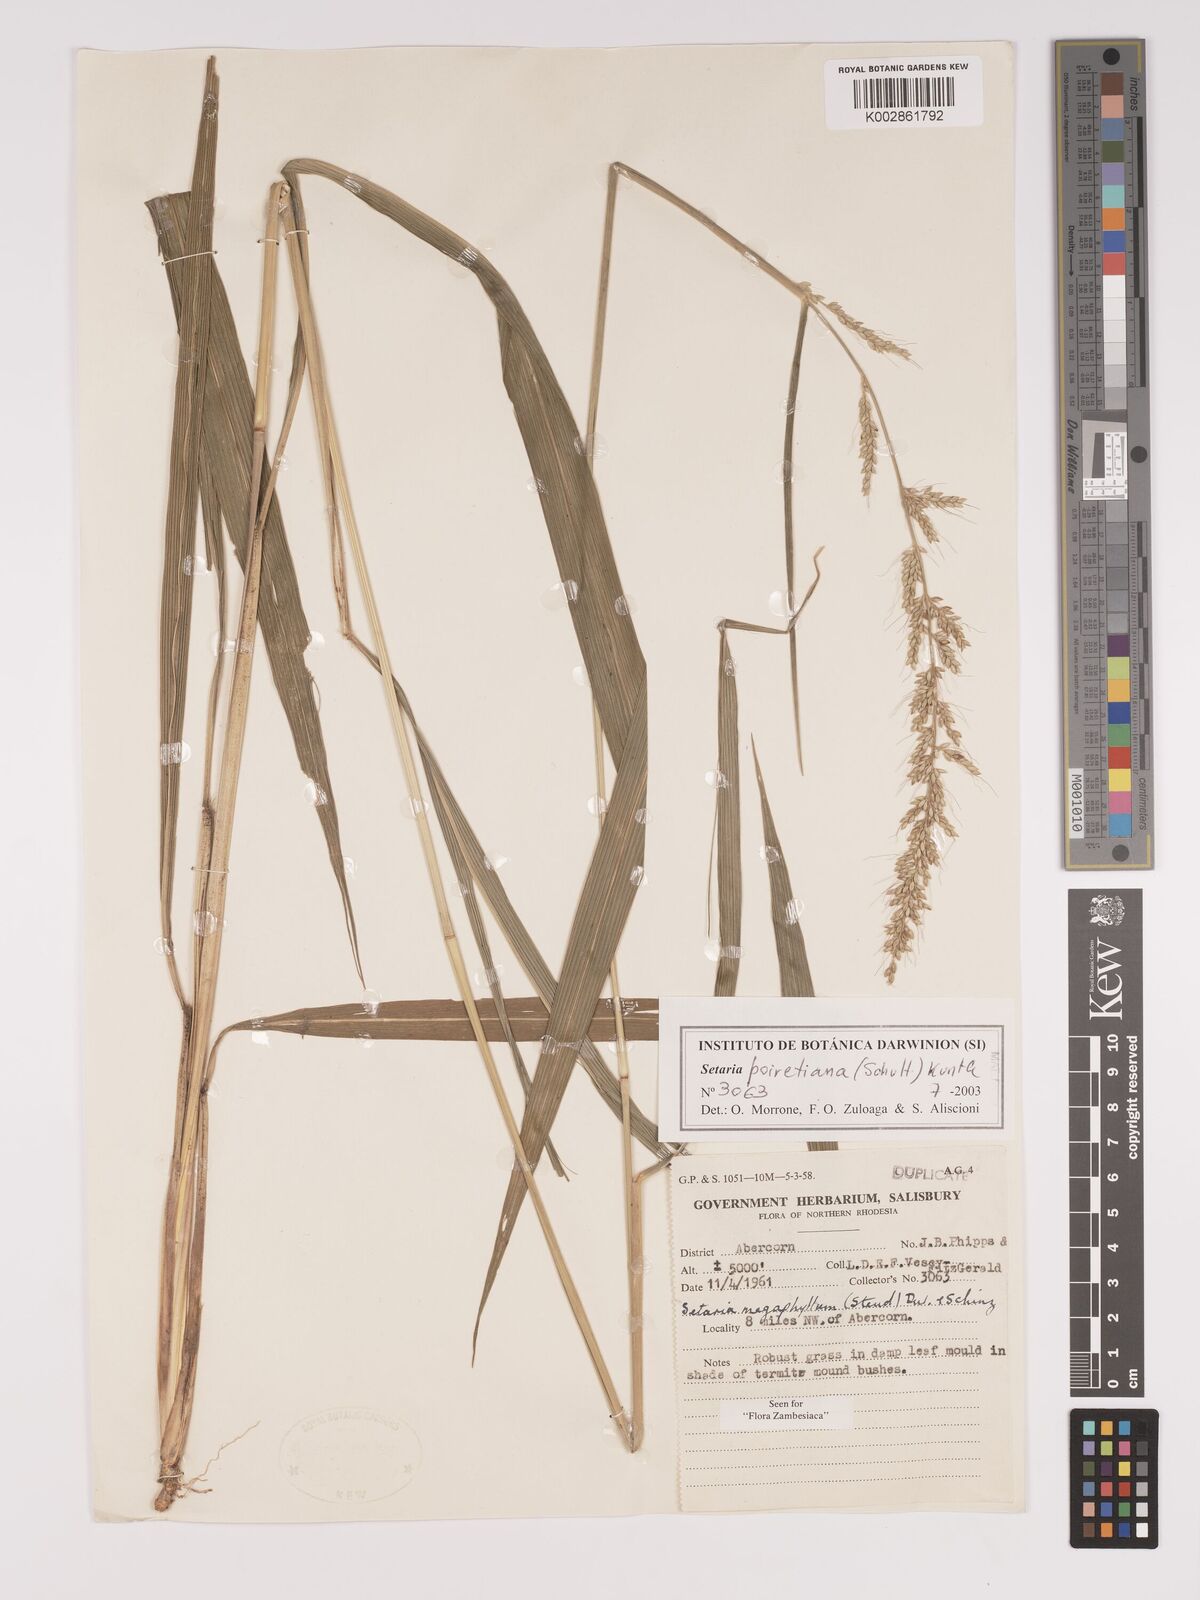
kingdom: Plantae
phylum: Tracheophyta
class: Liliopsida
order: Poales
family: Poaceae
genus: Setaria
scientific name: Setaria poiretiana
